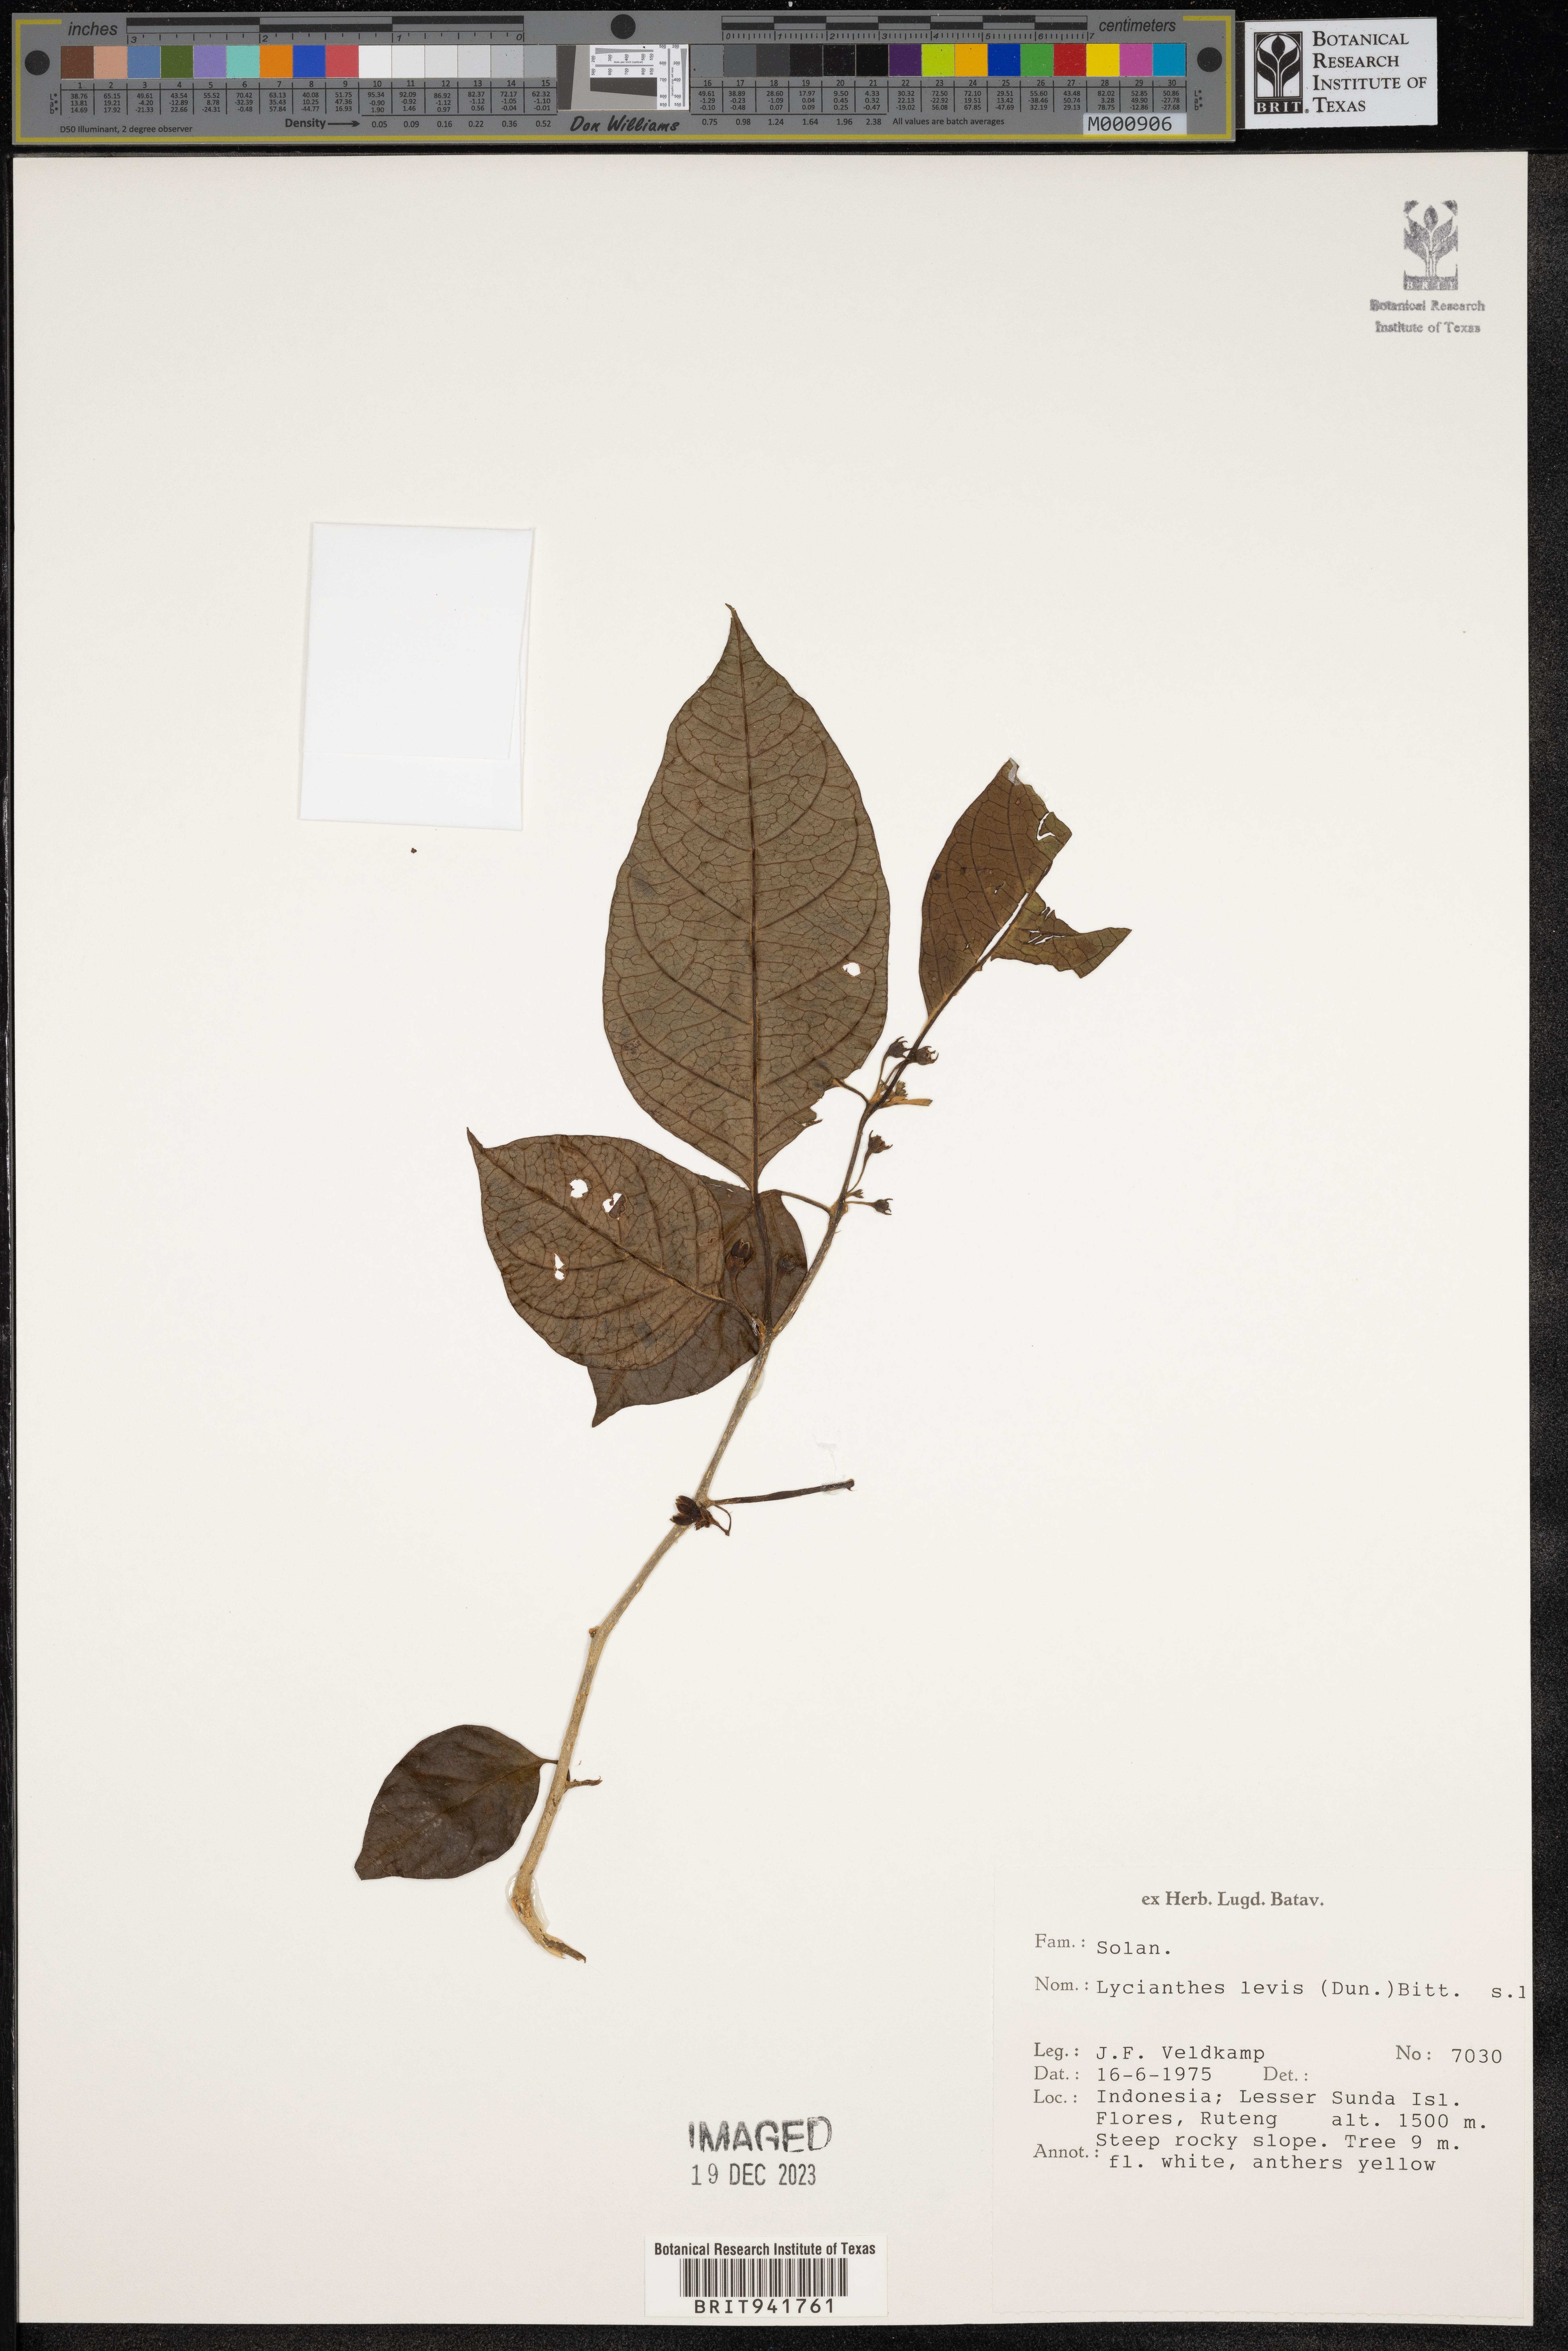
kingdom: Plantae
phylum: Tracheophyta
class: Magnoliopsida
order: Solanales
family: Solanaceae
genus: Lycianthes
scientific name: Lycianthes
